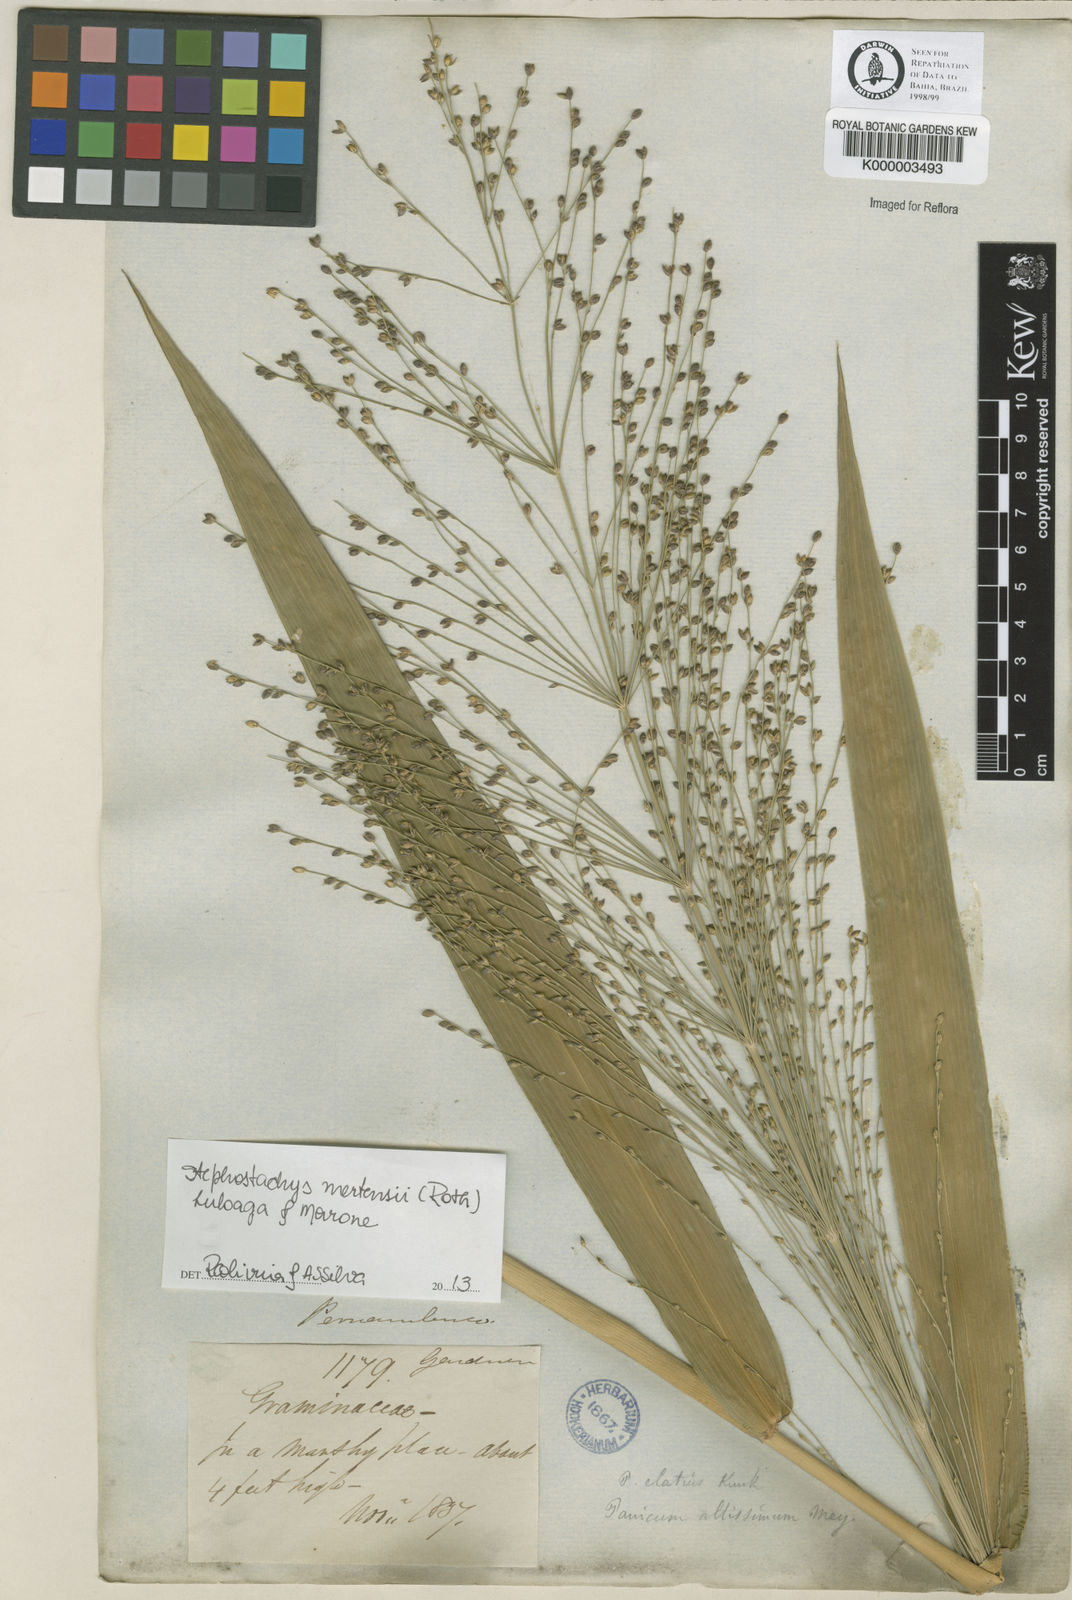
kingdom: Plantae
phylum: Tracheophyta
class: Liliopsida
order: Poales
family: Poaceae
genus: Stephostachys
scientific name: Stephostachys mertensii
